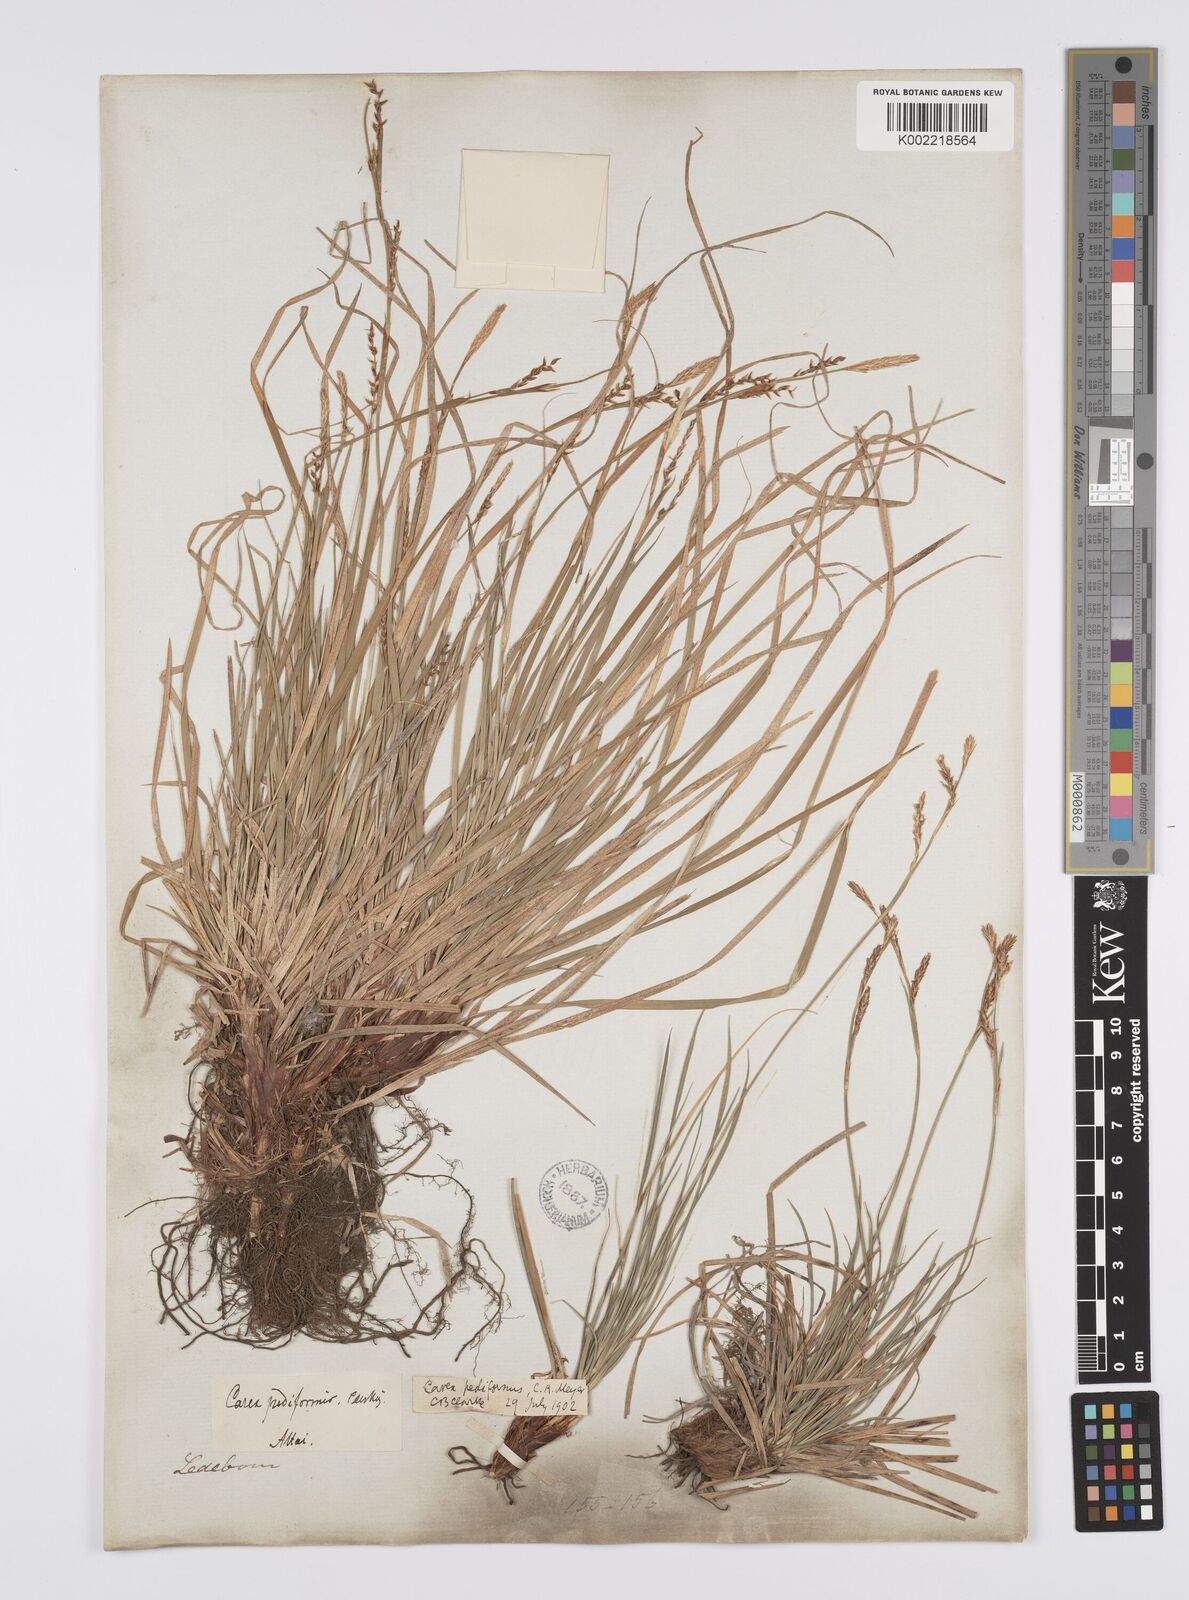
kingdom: Plantae
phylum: Tracheophyta
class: Liliopsida
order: Poales
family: Cyperaceae
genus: Carex
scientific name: Carex pediformis
